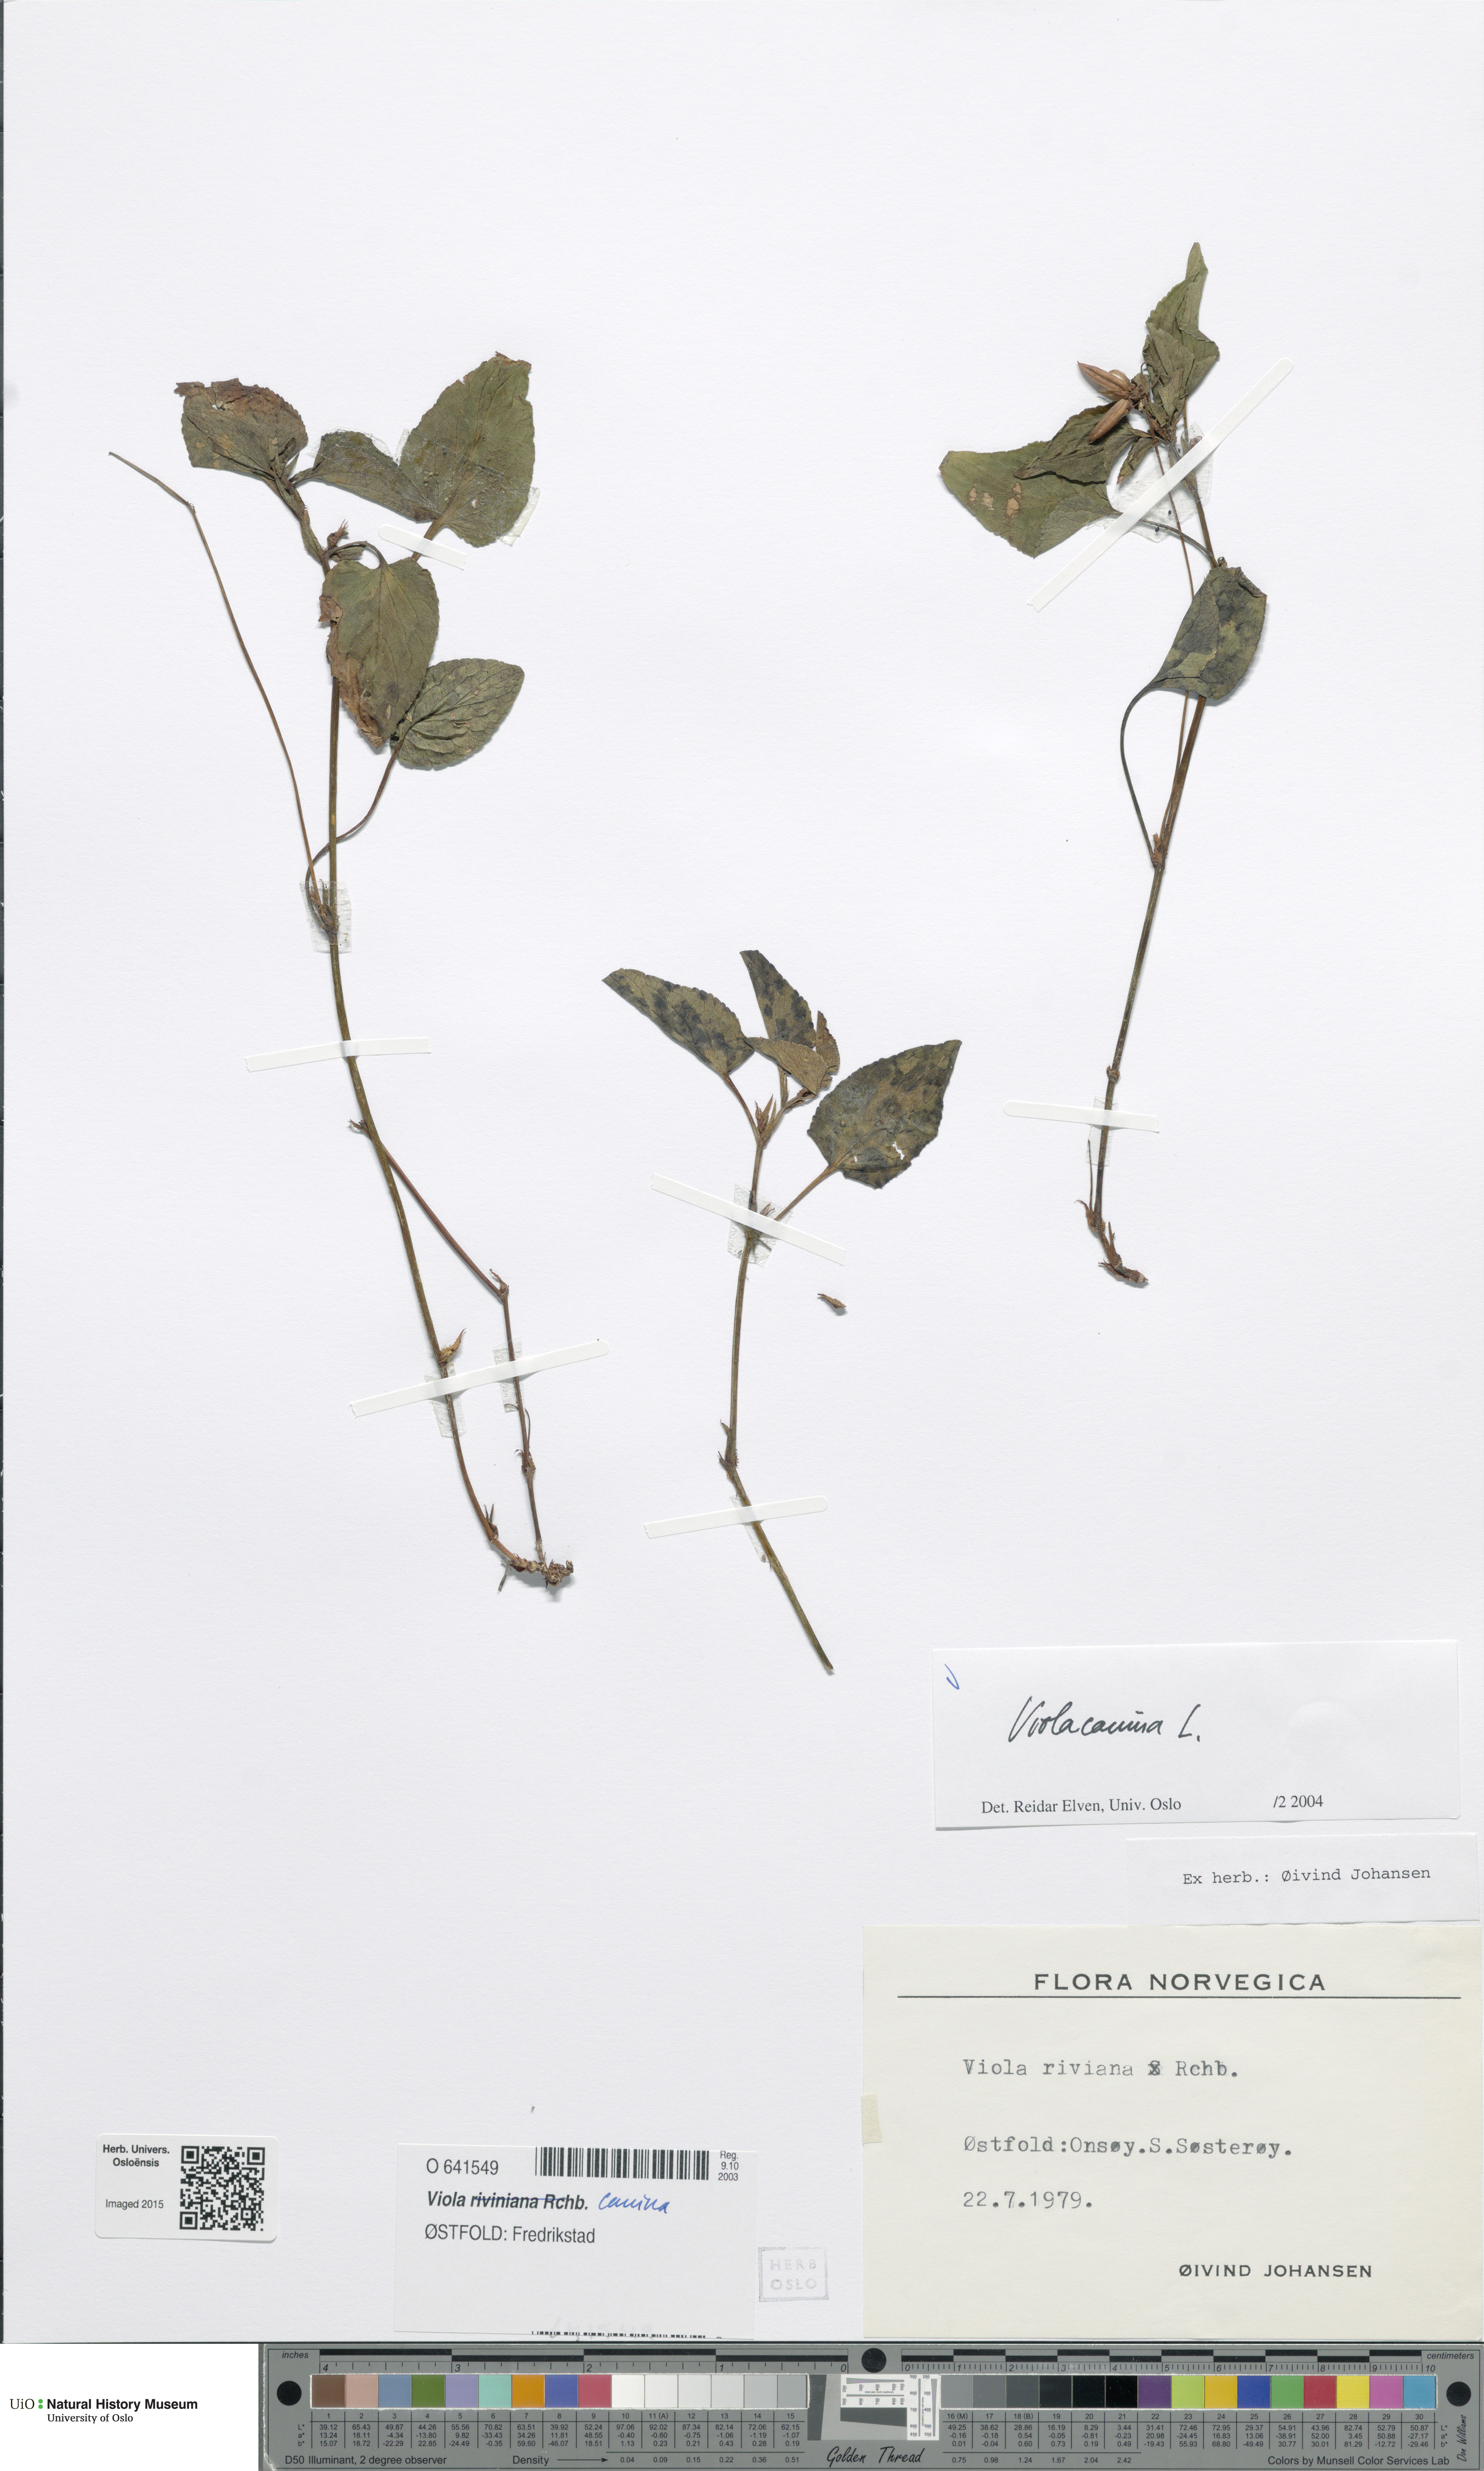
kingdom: Plantae
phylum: Tracheophyta
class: Magnoliopsida
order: Malpighiales
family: Violaceae
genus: Viola
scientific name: Viola canina
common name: Heath dog-violet
